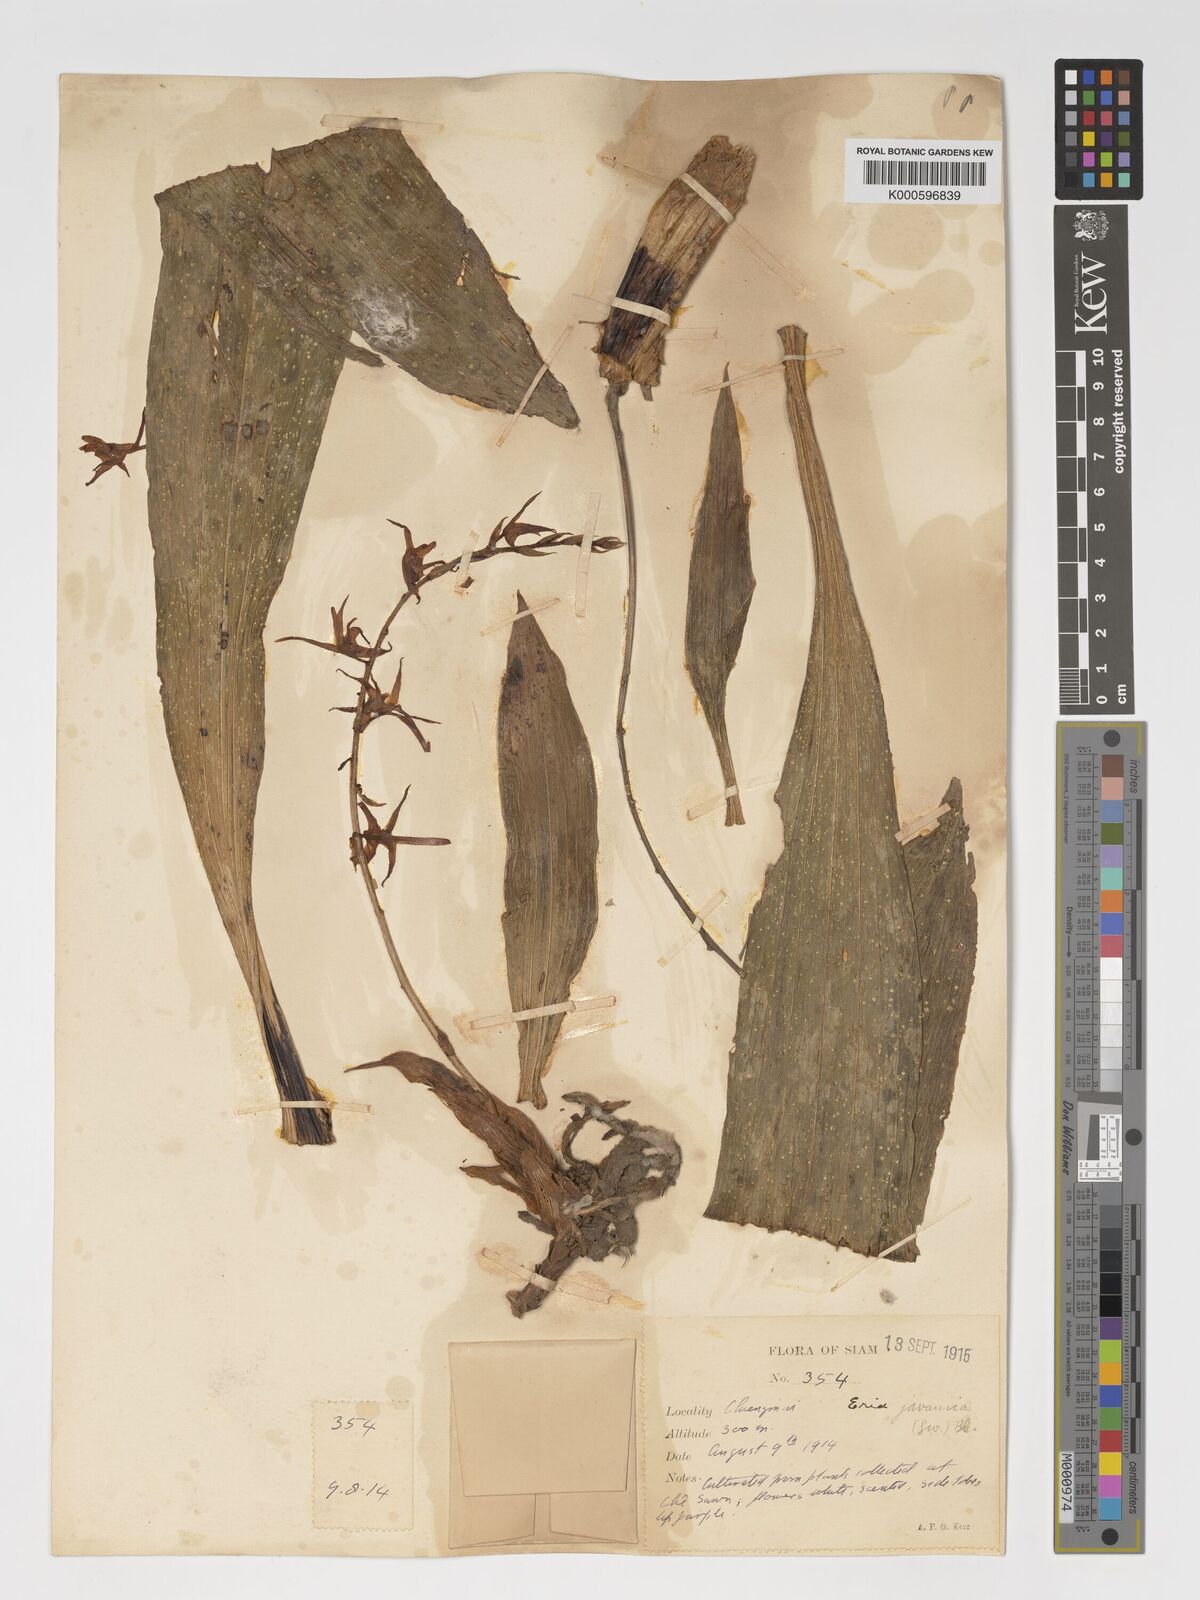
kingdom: Plantae
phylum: Tracheophyta
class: Liliopsida
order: Asparagales
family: Orchidaceae
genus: Eria
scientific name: Eria javanica
